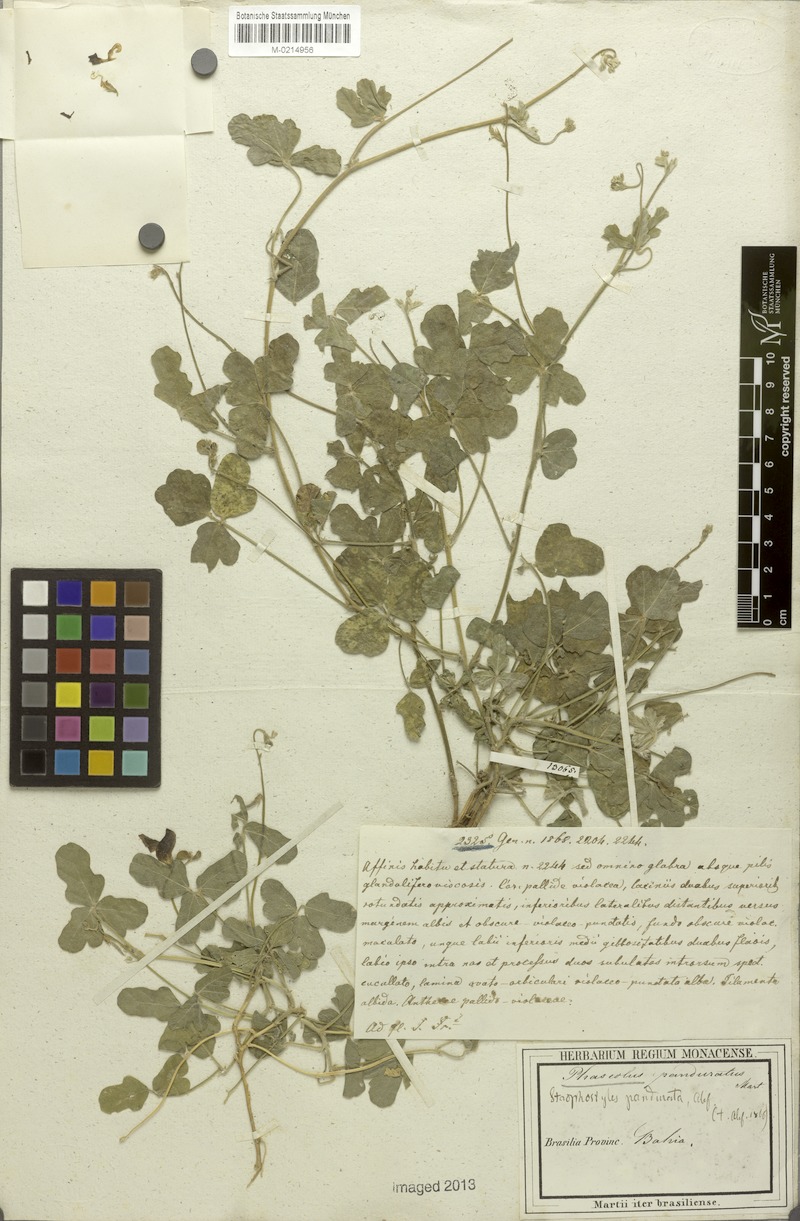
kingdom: Plantae
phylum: Tracheophyta
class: Magnoliopsida
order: Fabales
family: Fabaceae
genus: Macroptilium
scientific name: Macroptilium panduratum
